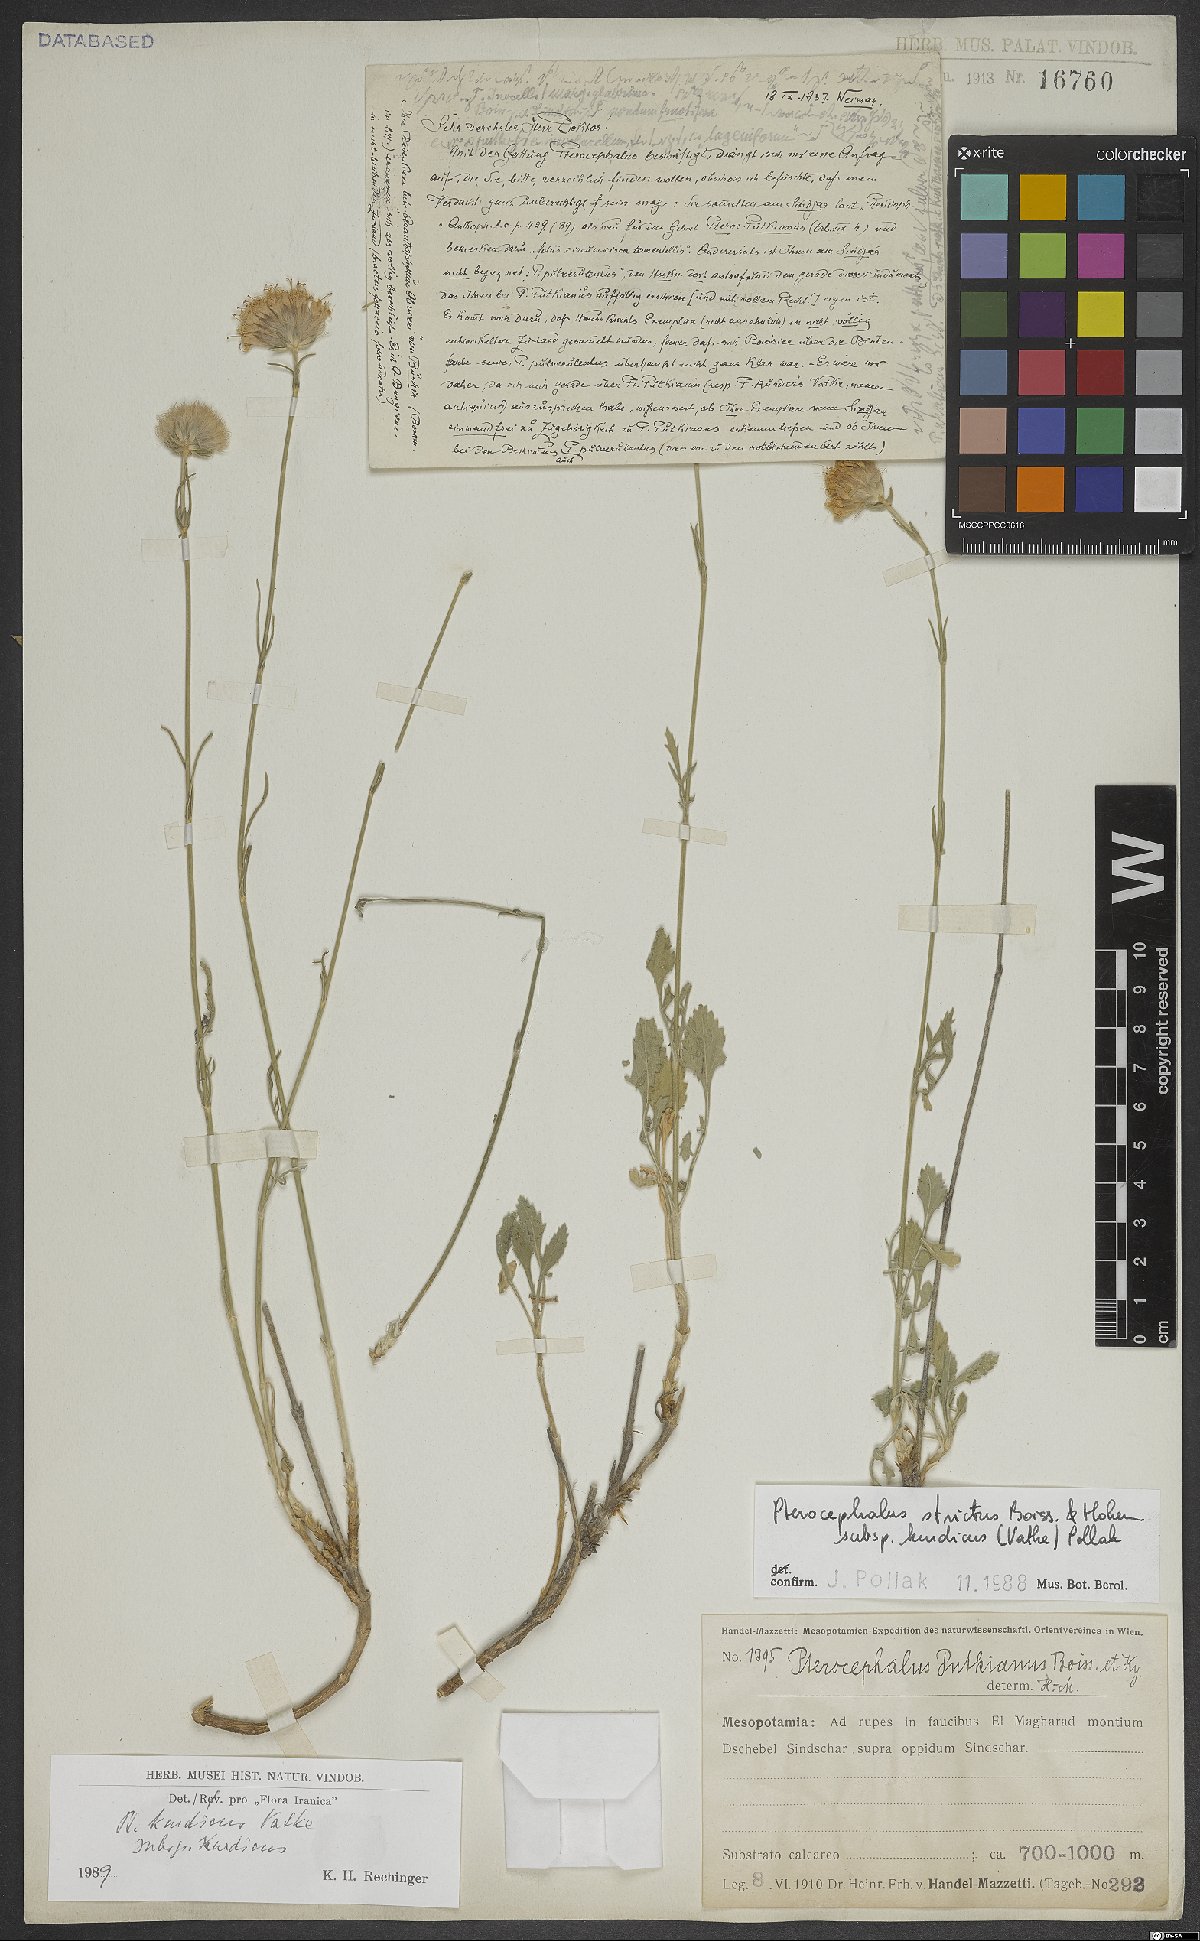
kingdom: Plantae
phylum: Tracheophyta
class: Magnoliopsida
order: Dipsacales
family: Caprifoliaceae
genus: Pterocephalus
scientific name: Pterocephalus kurdicus
